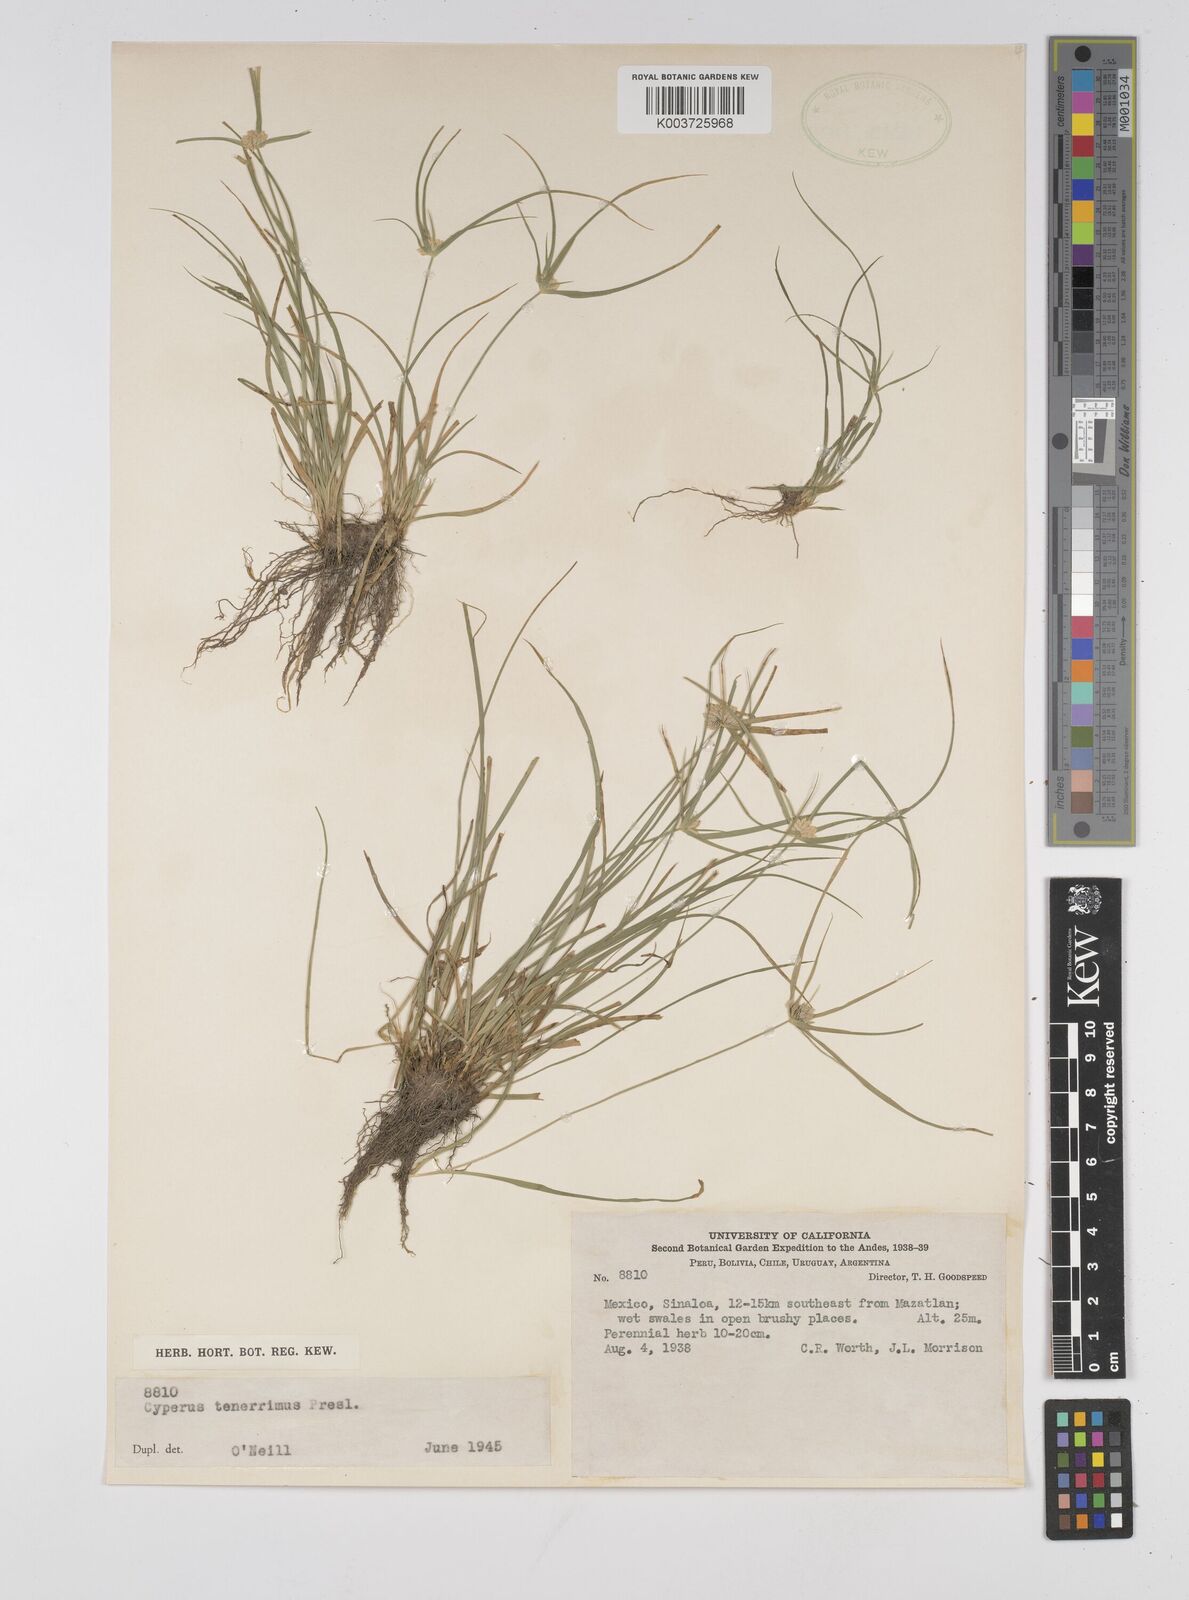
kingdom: Plantae
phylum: Tracheophyta
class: Liliopsida
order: Poales
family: Cyperaceae
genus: Cyperus
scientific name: Cyperus tenerrimus
